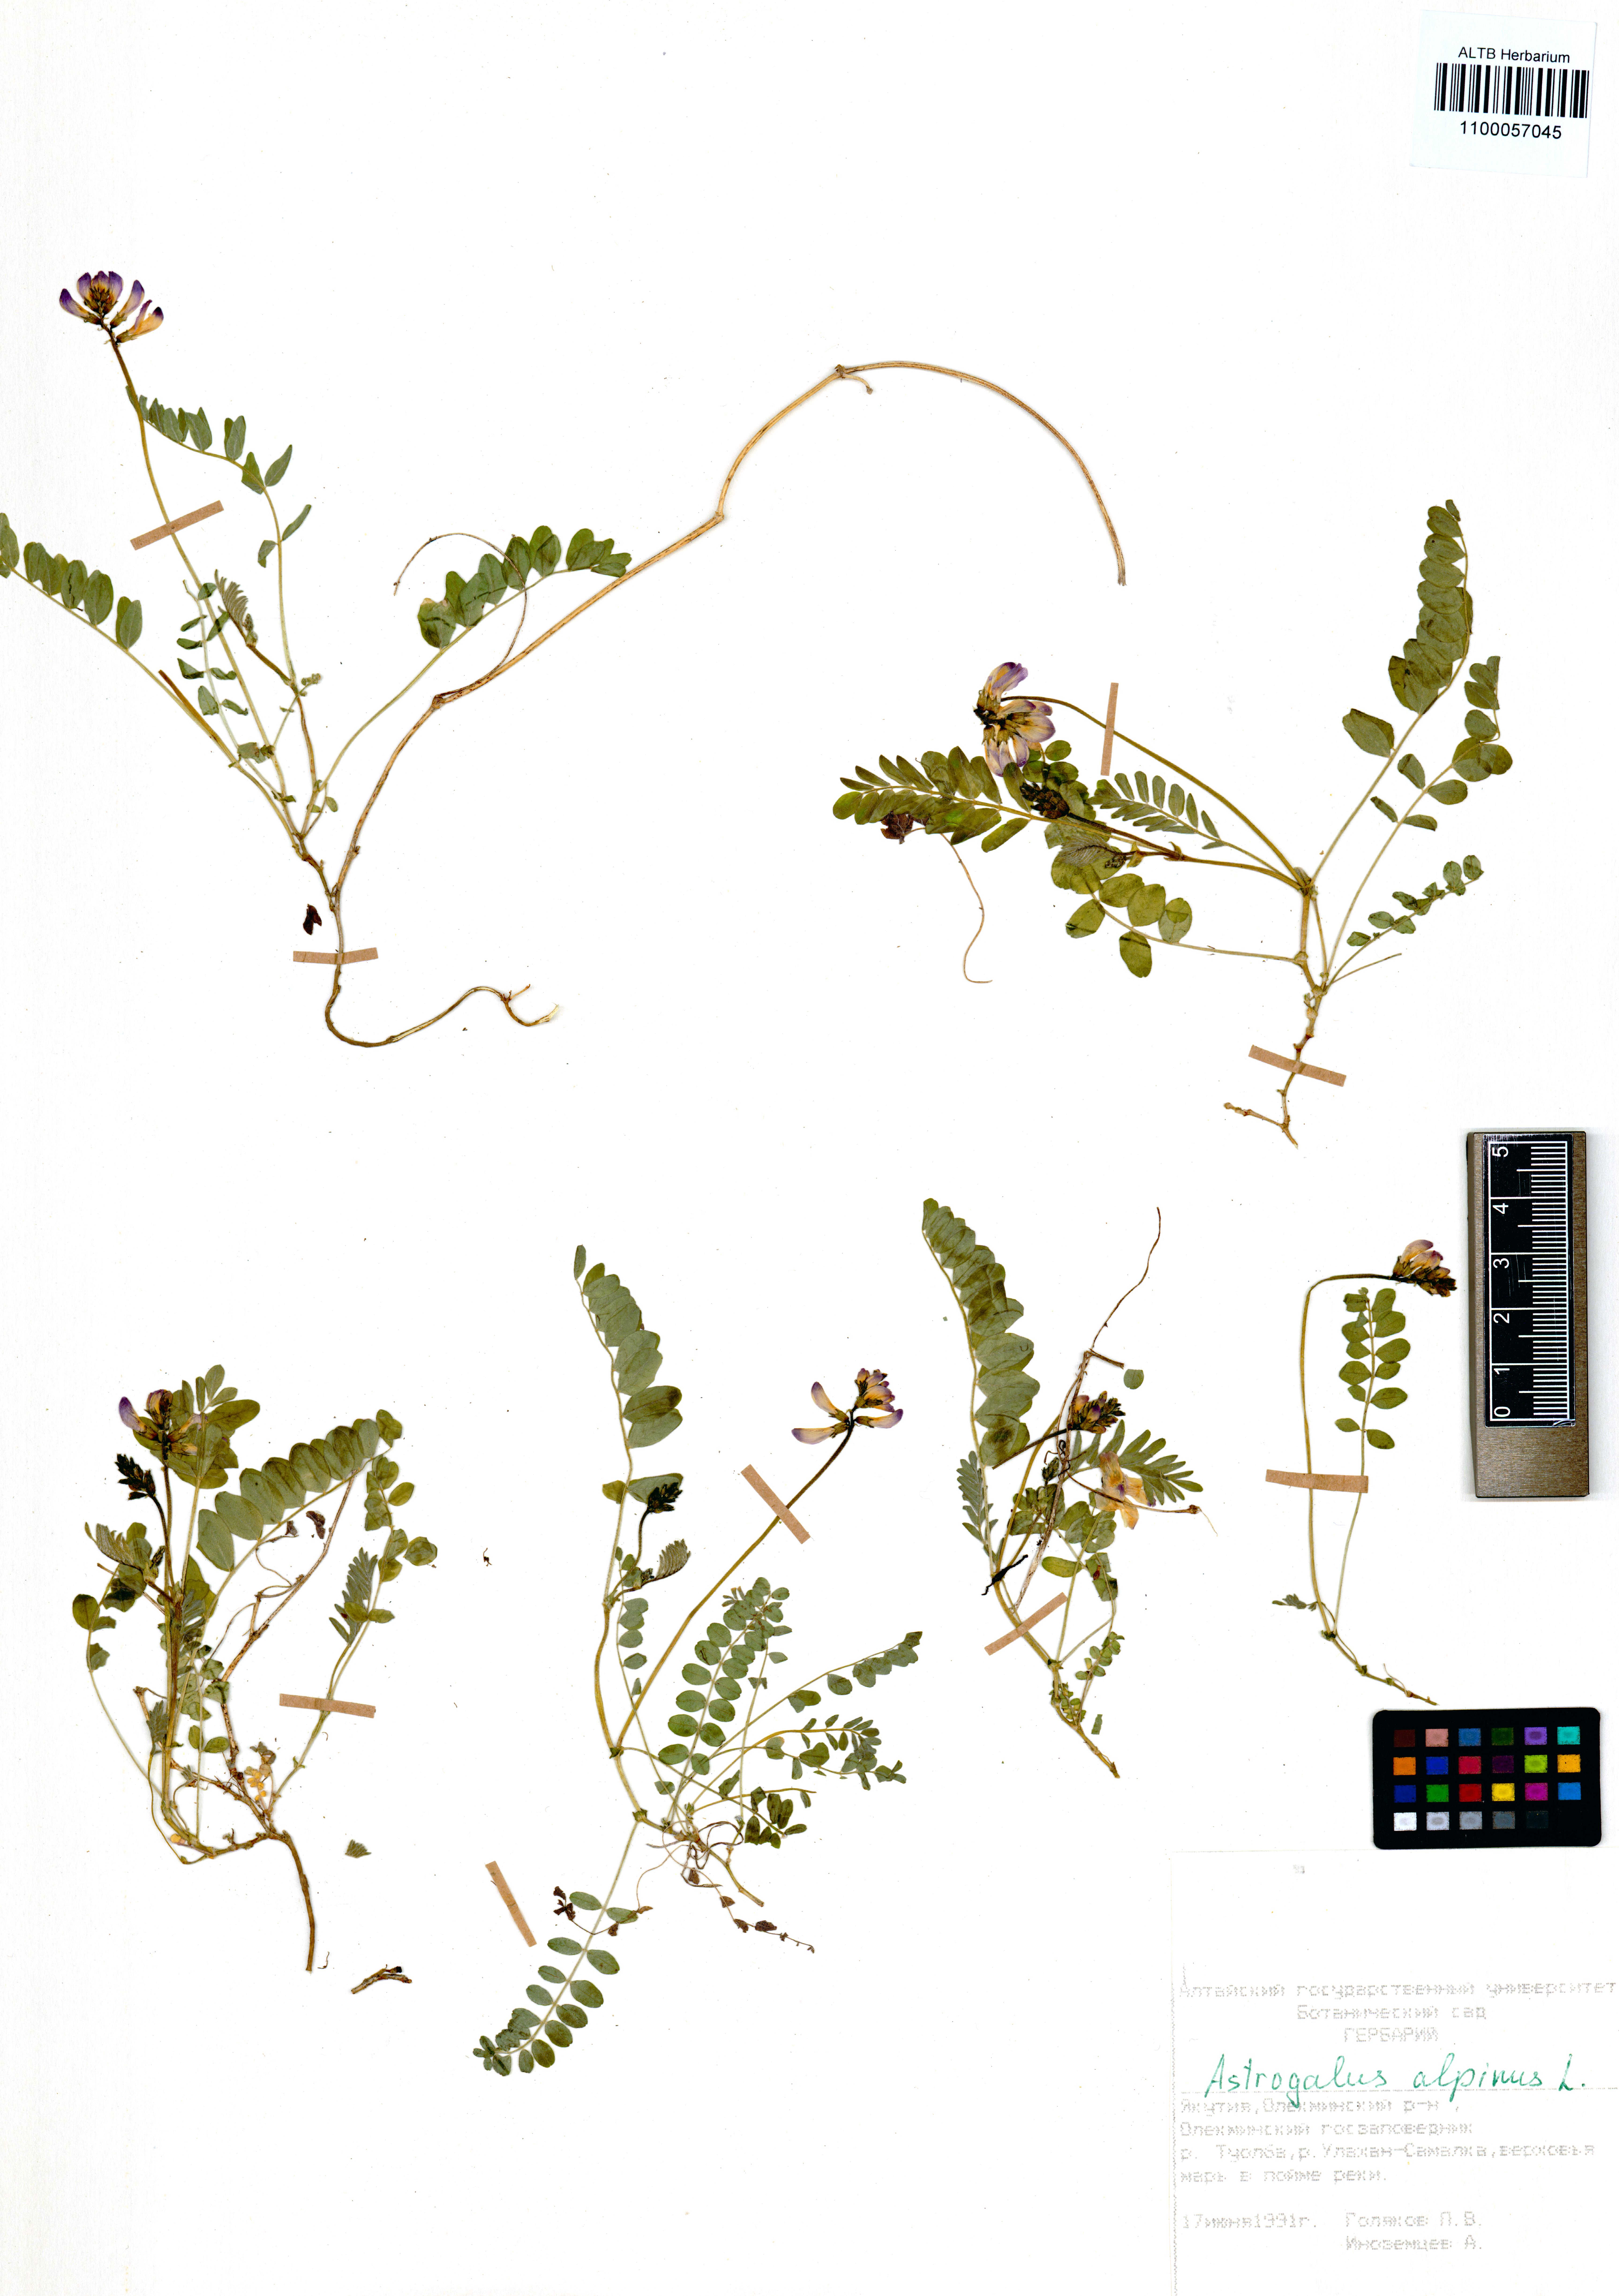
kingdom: Plantae
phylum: Tracheophyta
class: Magnoliopsida
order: Fabales
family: Fabaceae
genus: Astragalus
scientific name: Astragalus alpinus
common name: Alpine milk-vetch
